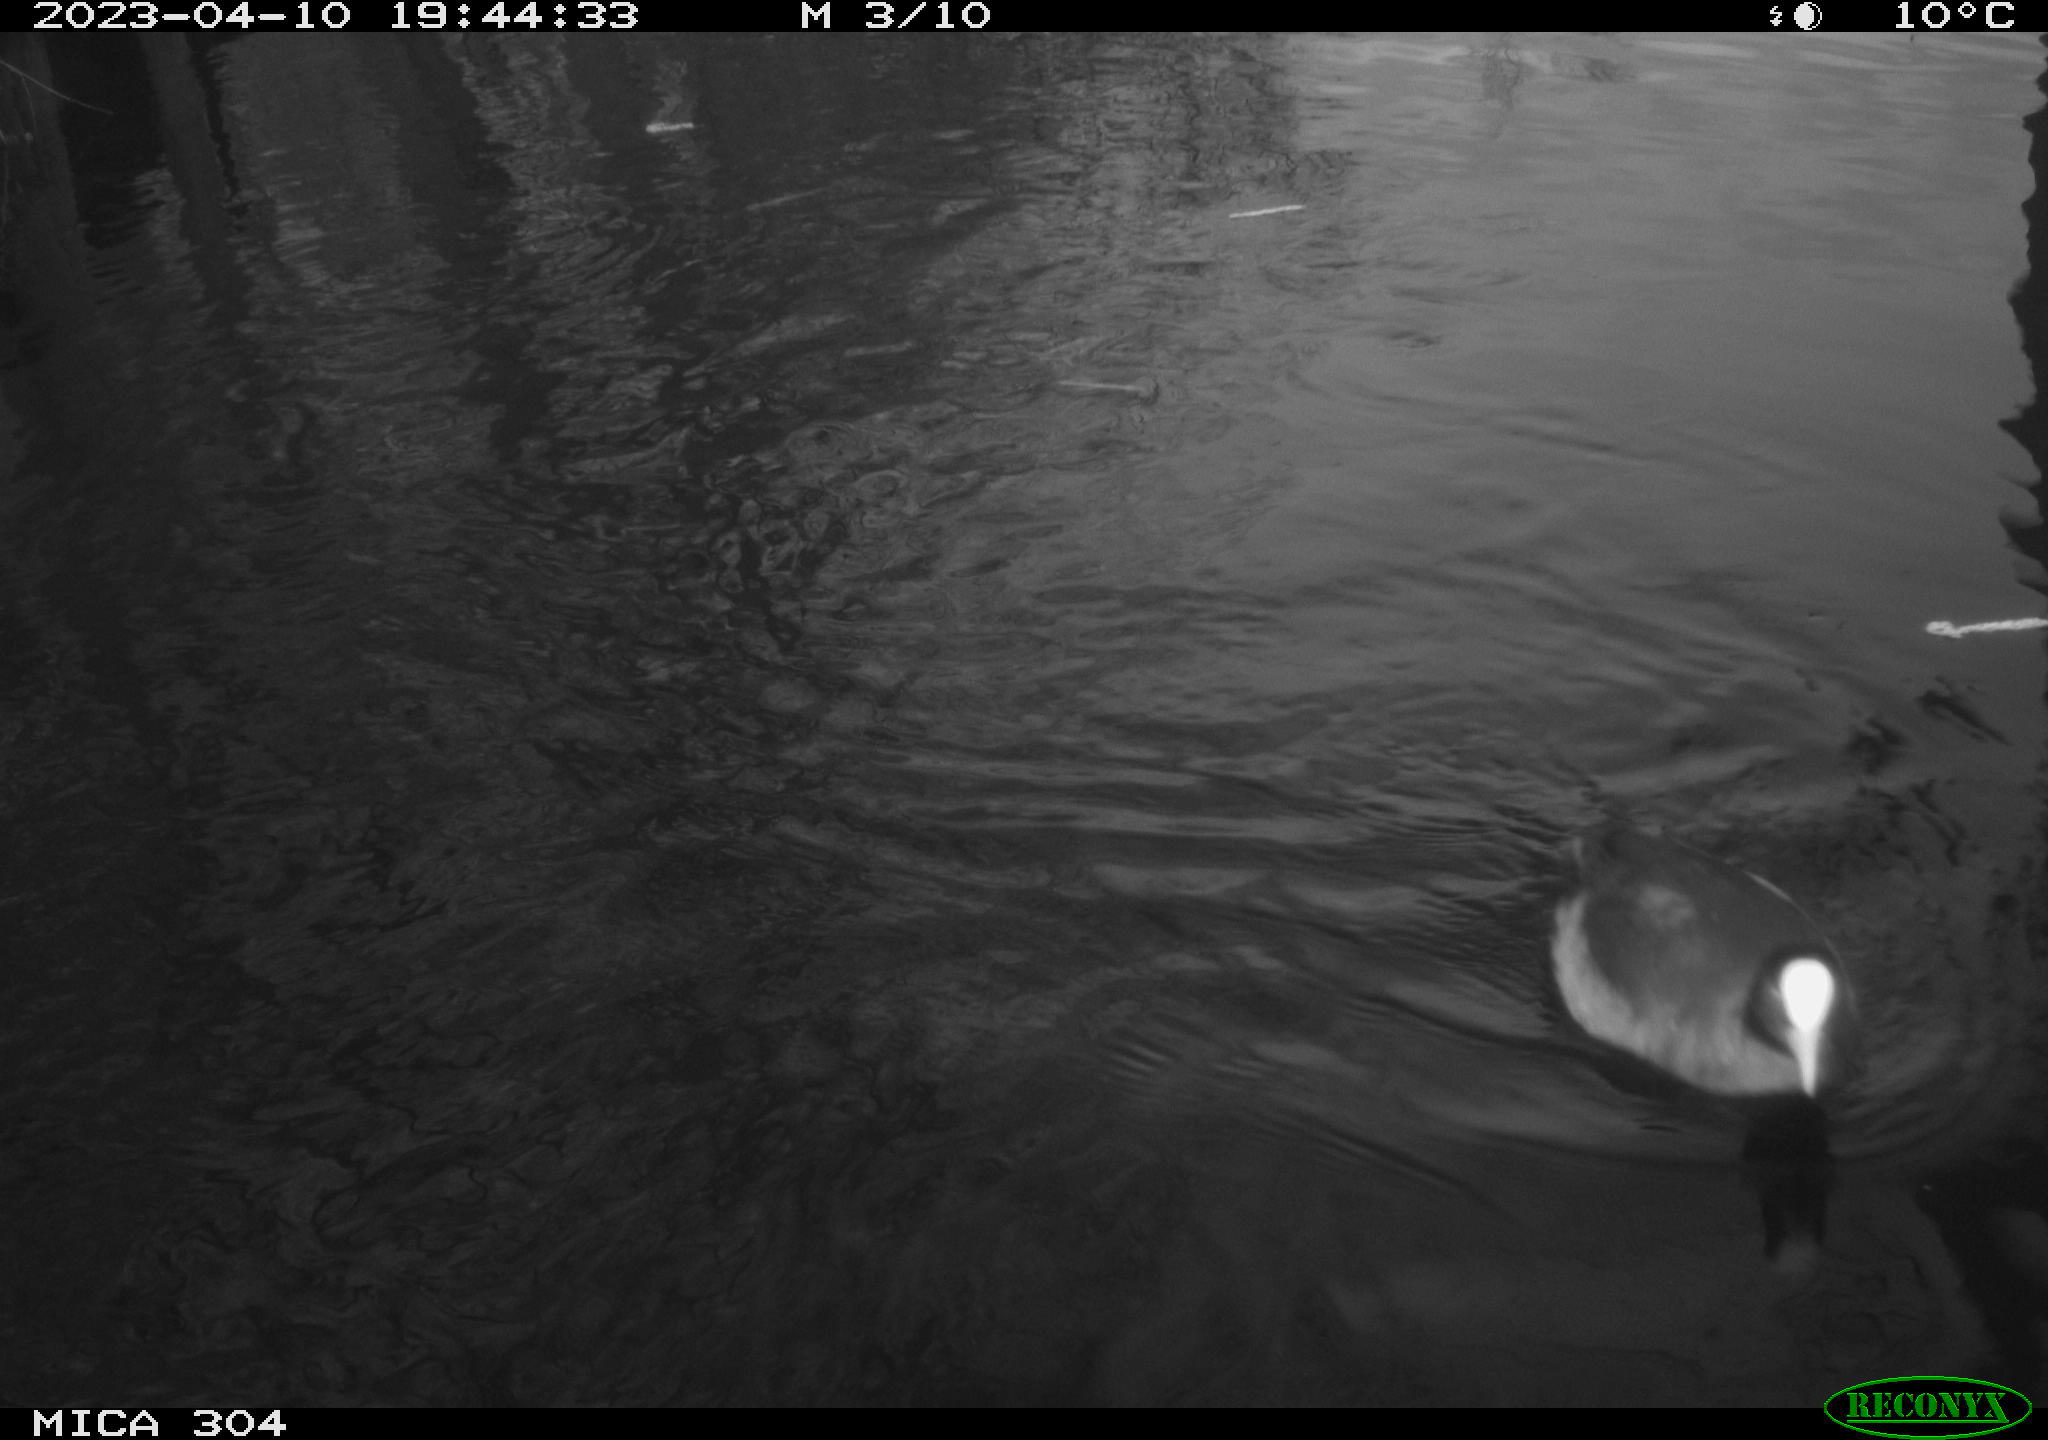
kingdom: Animalia
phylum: Chordata
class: Aves
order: Anseriformes
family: Anatidae
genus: Anas
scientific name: Anas
